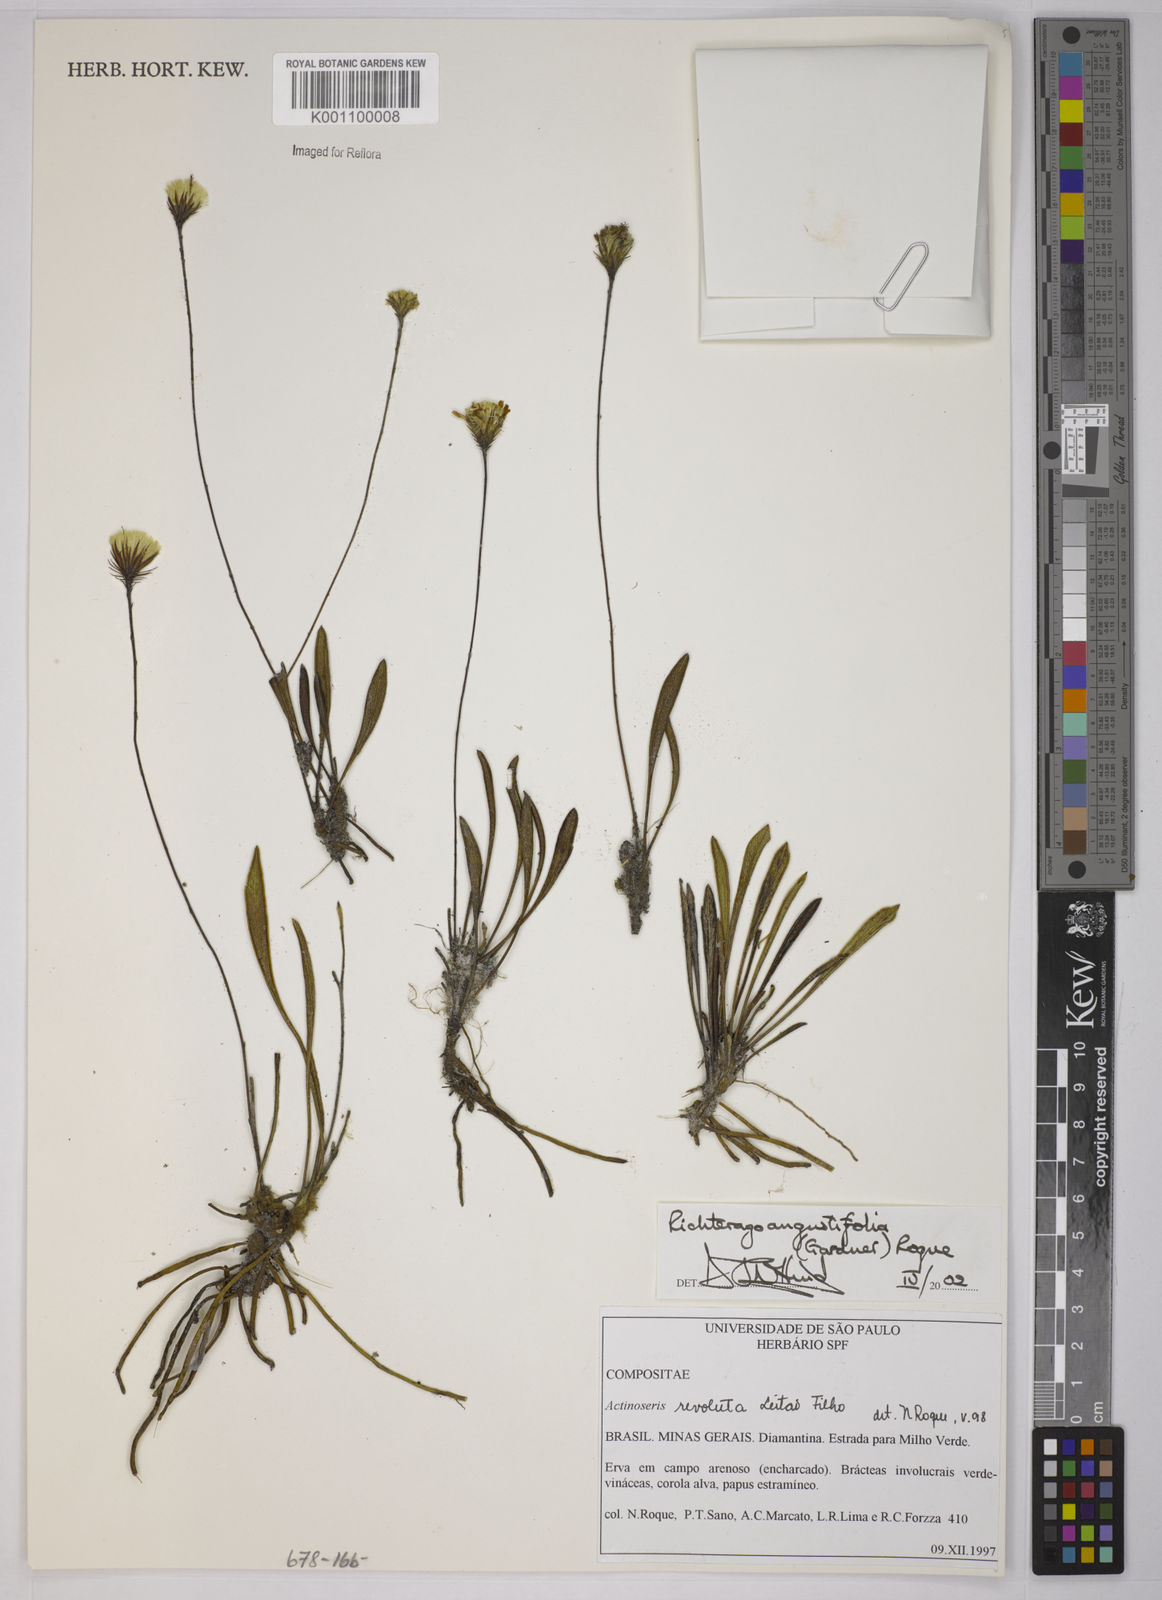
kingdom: Plantae
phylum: Tracheophyta
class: Magnoliopsida
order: Asterales
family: Asteraceae
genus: Richterago
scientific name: Richterago angustifolia
